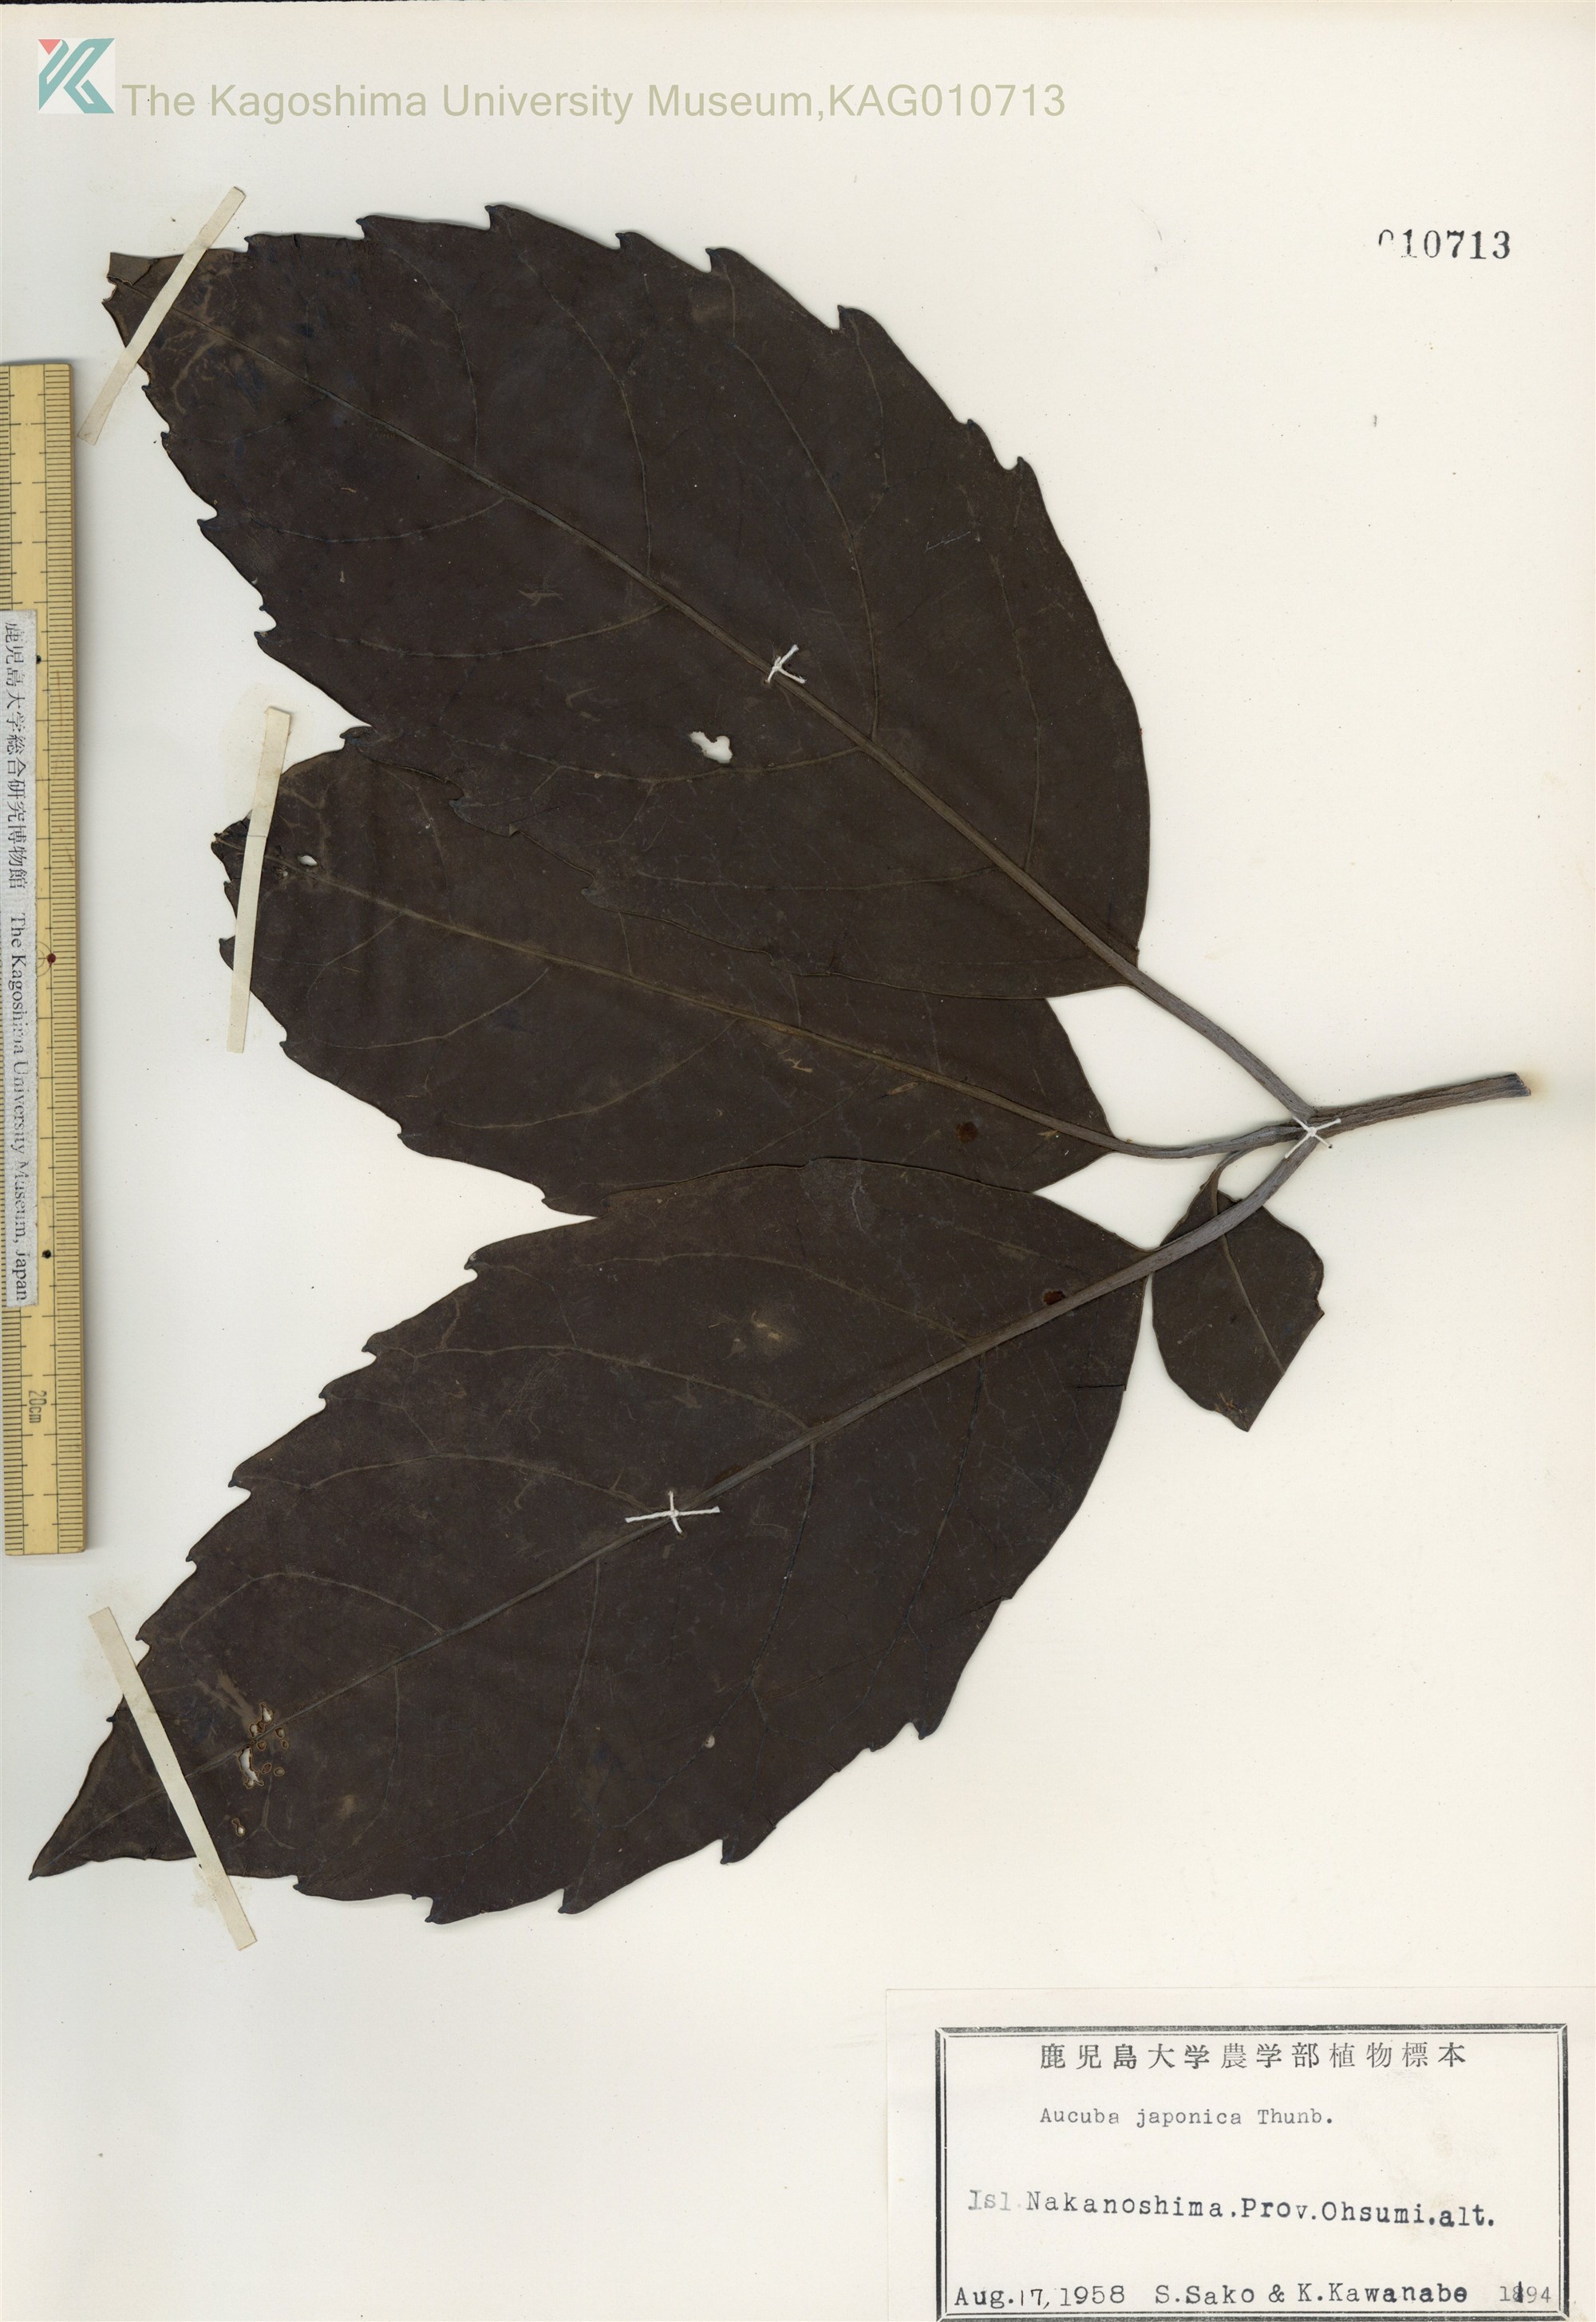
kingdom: Plantae
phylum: Tracheophyta
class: Magnoliopsida
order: Garryales
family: Garryaceae
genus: Aucuba
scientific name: Aucuba japonica
